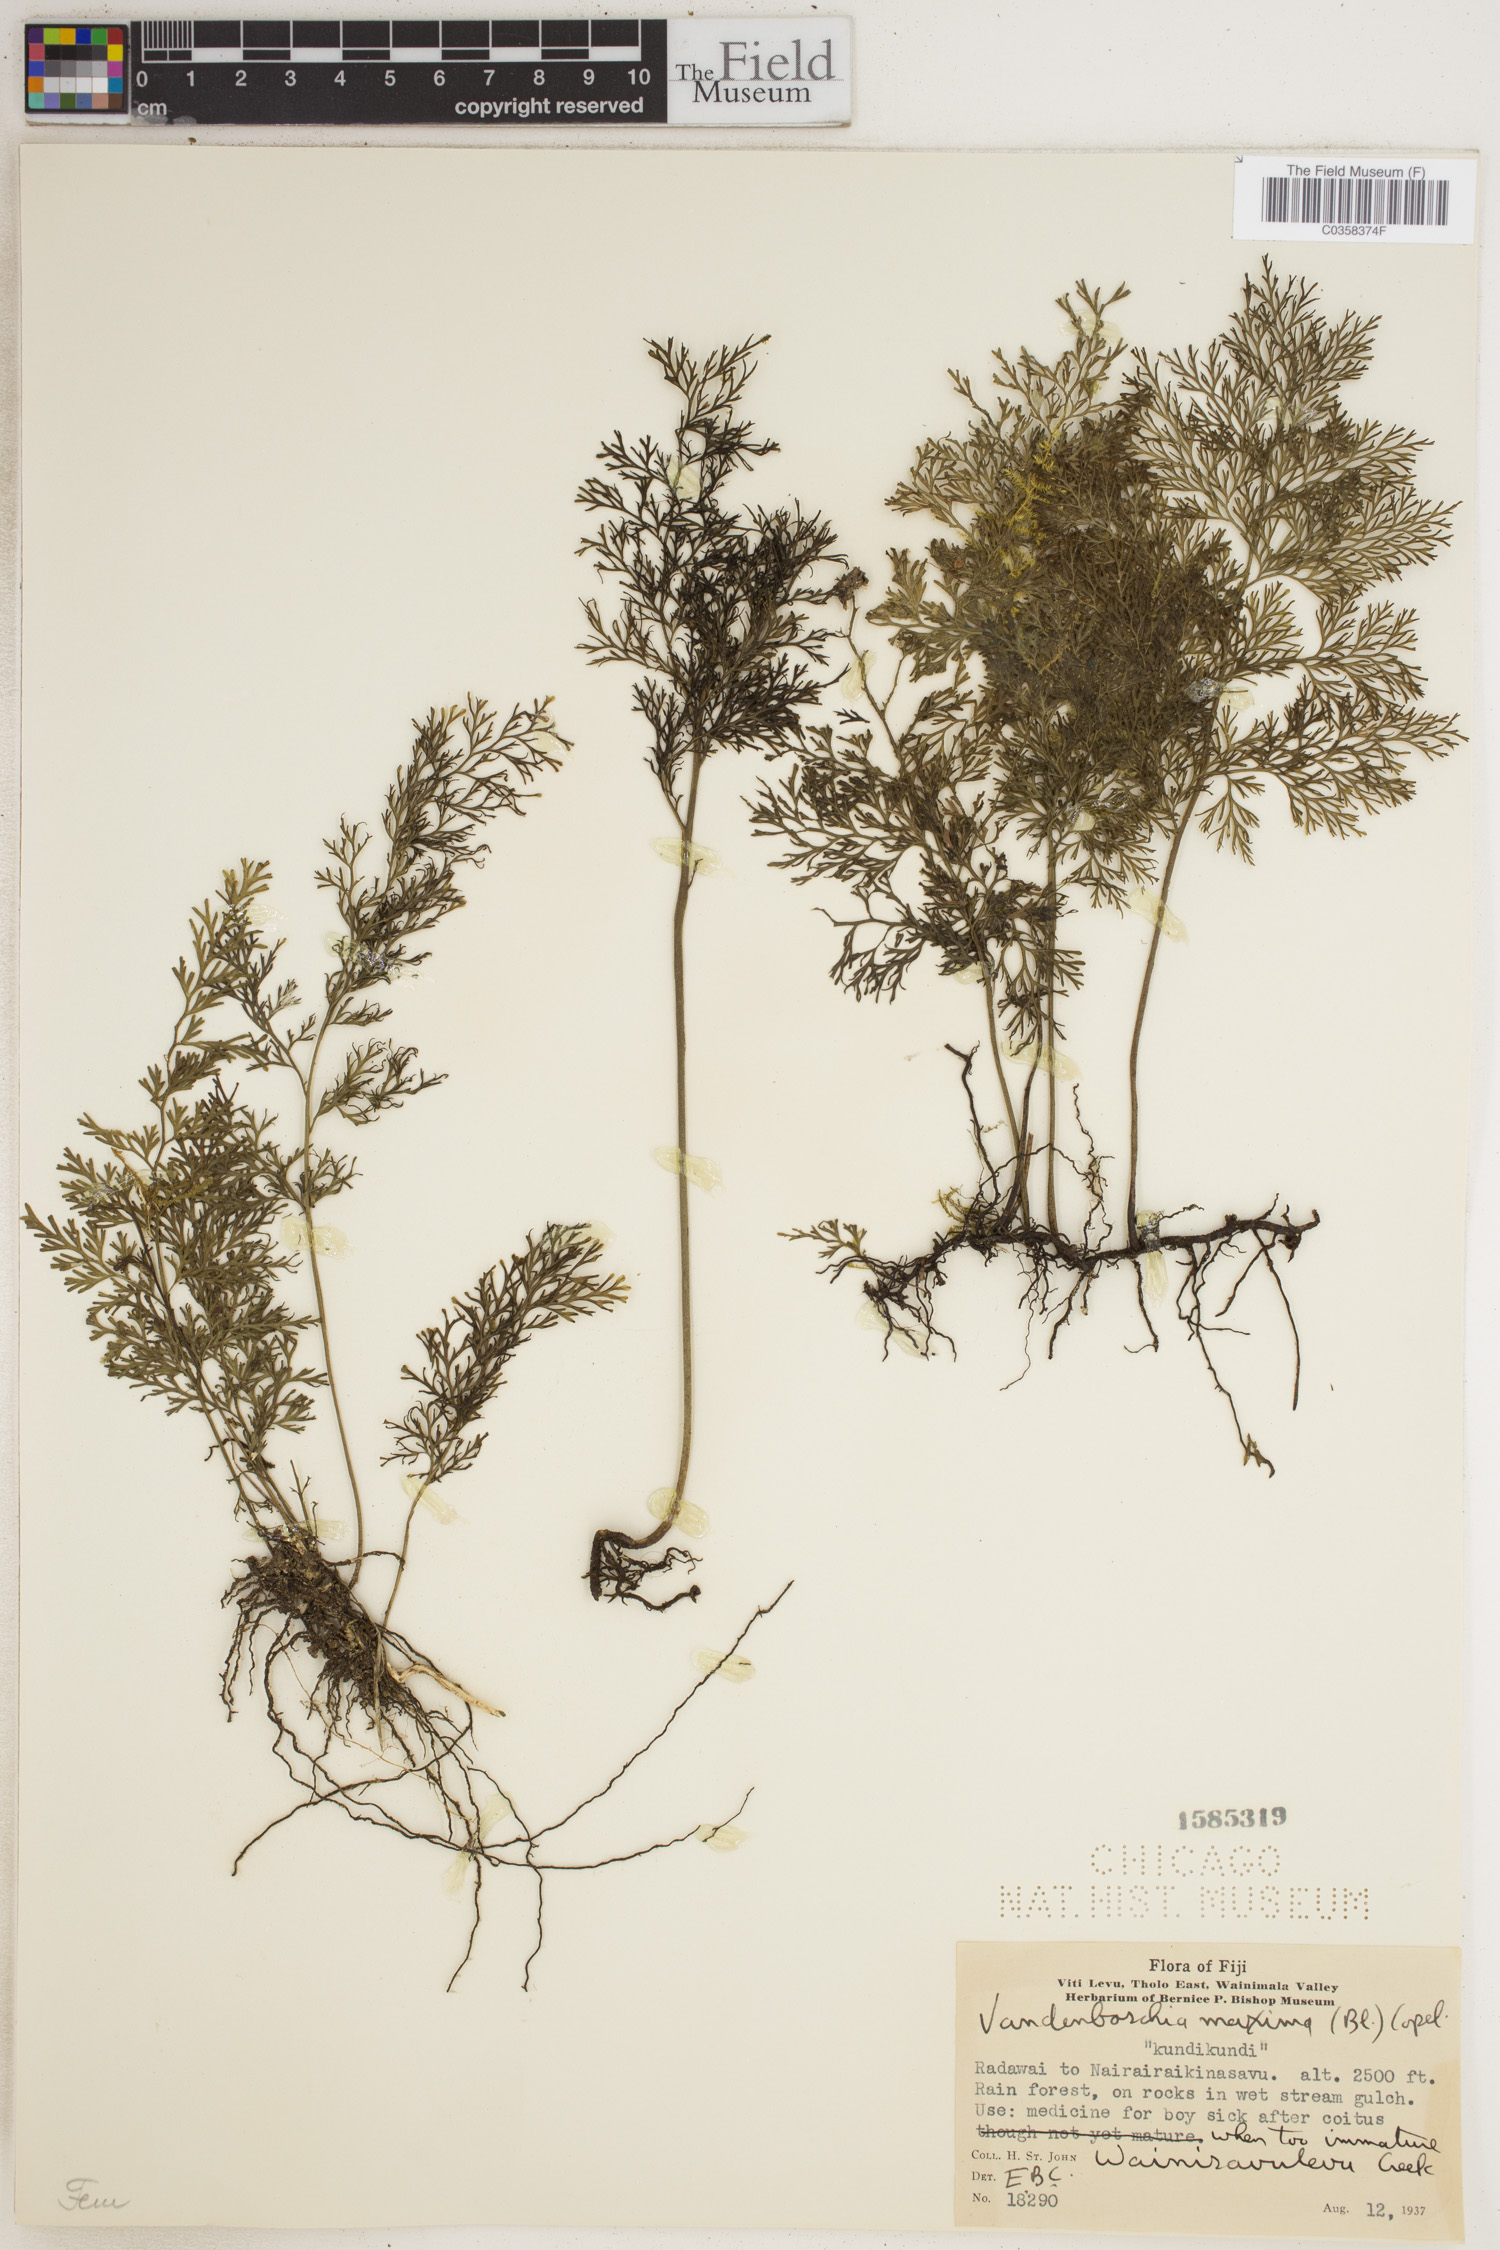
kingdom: Plantae
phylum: Tracheophyta
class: Polypodiopsida
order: Hymenophyllales
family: Hymenophyllaceae
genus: Vandenboschia
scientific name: Vandenboschia maxima
